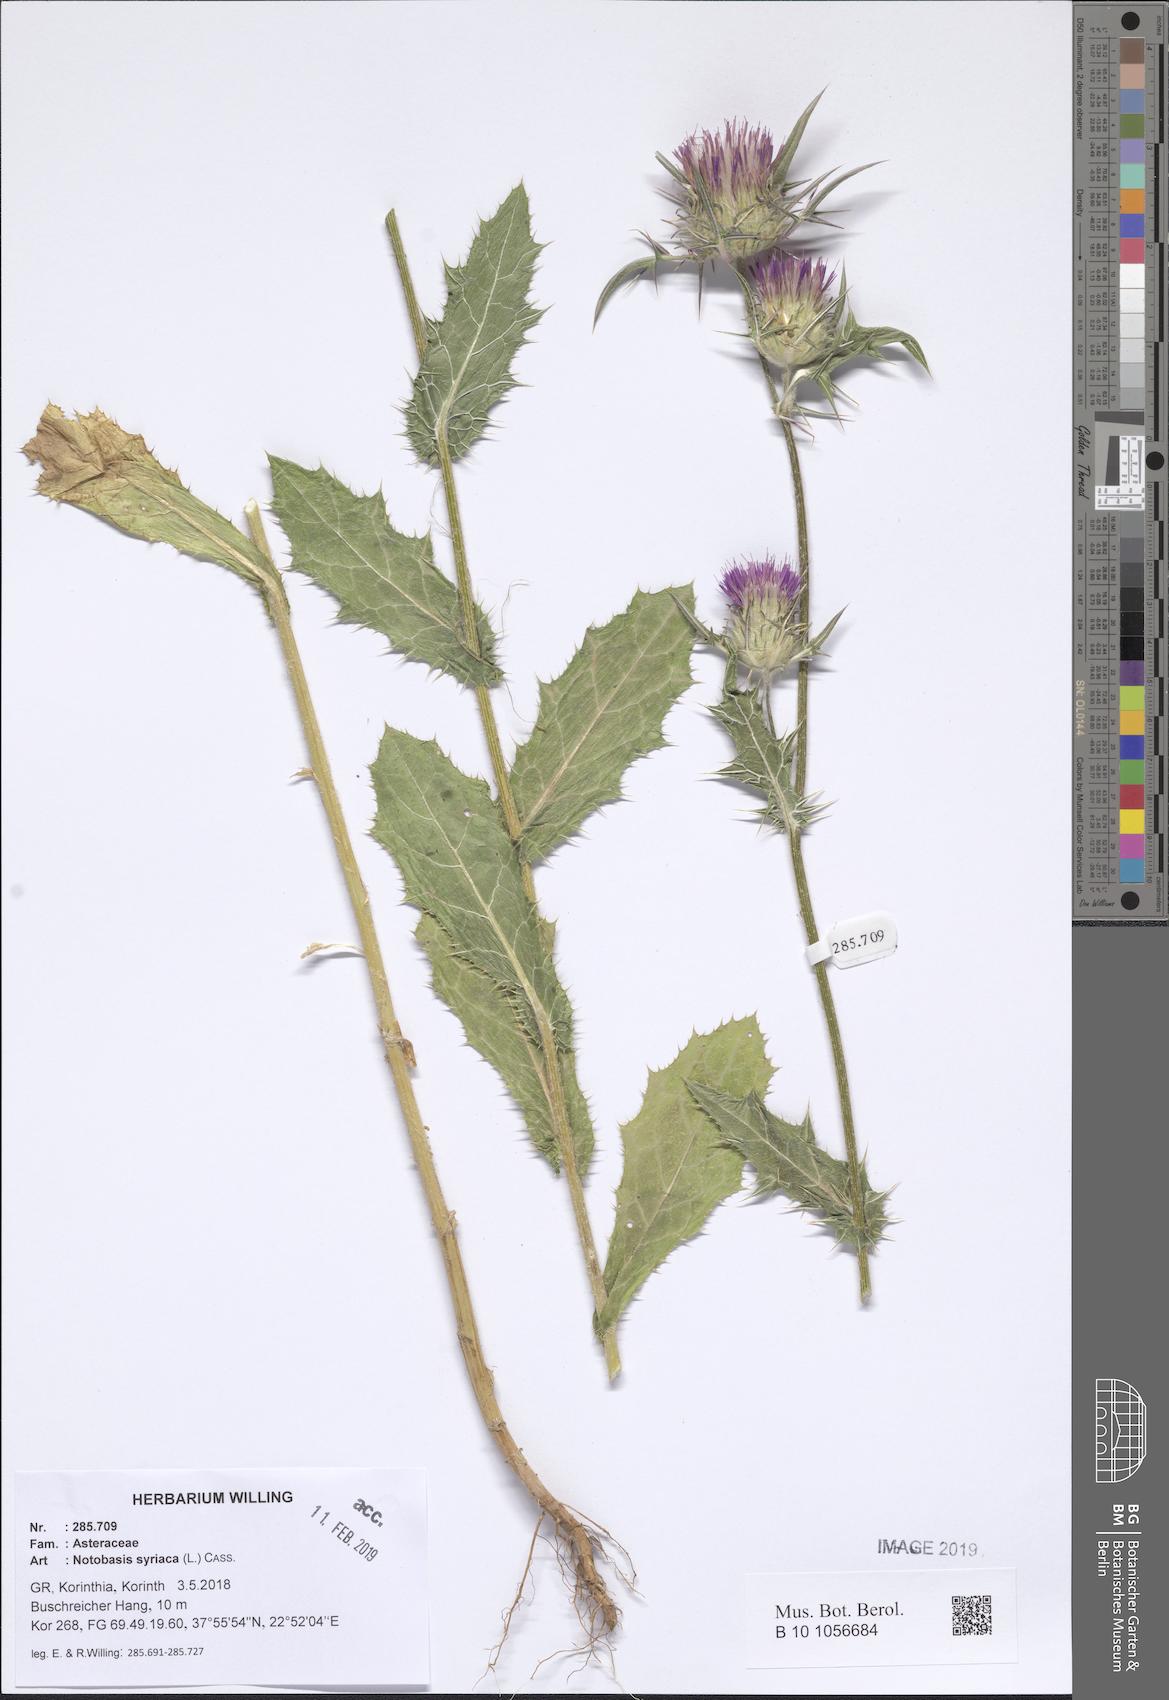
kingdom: Plantae
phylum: Tracheophyta
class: Magnoliopsida
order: Asterales
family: Asteraceae
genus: Notobasis
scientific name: Notobasis syriaca
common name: Syrian thistle
